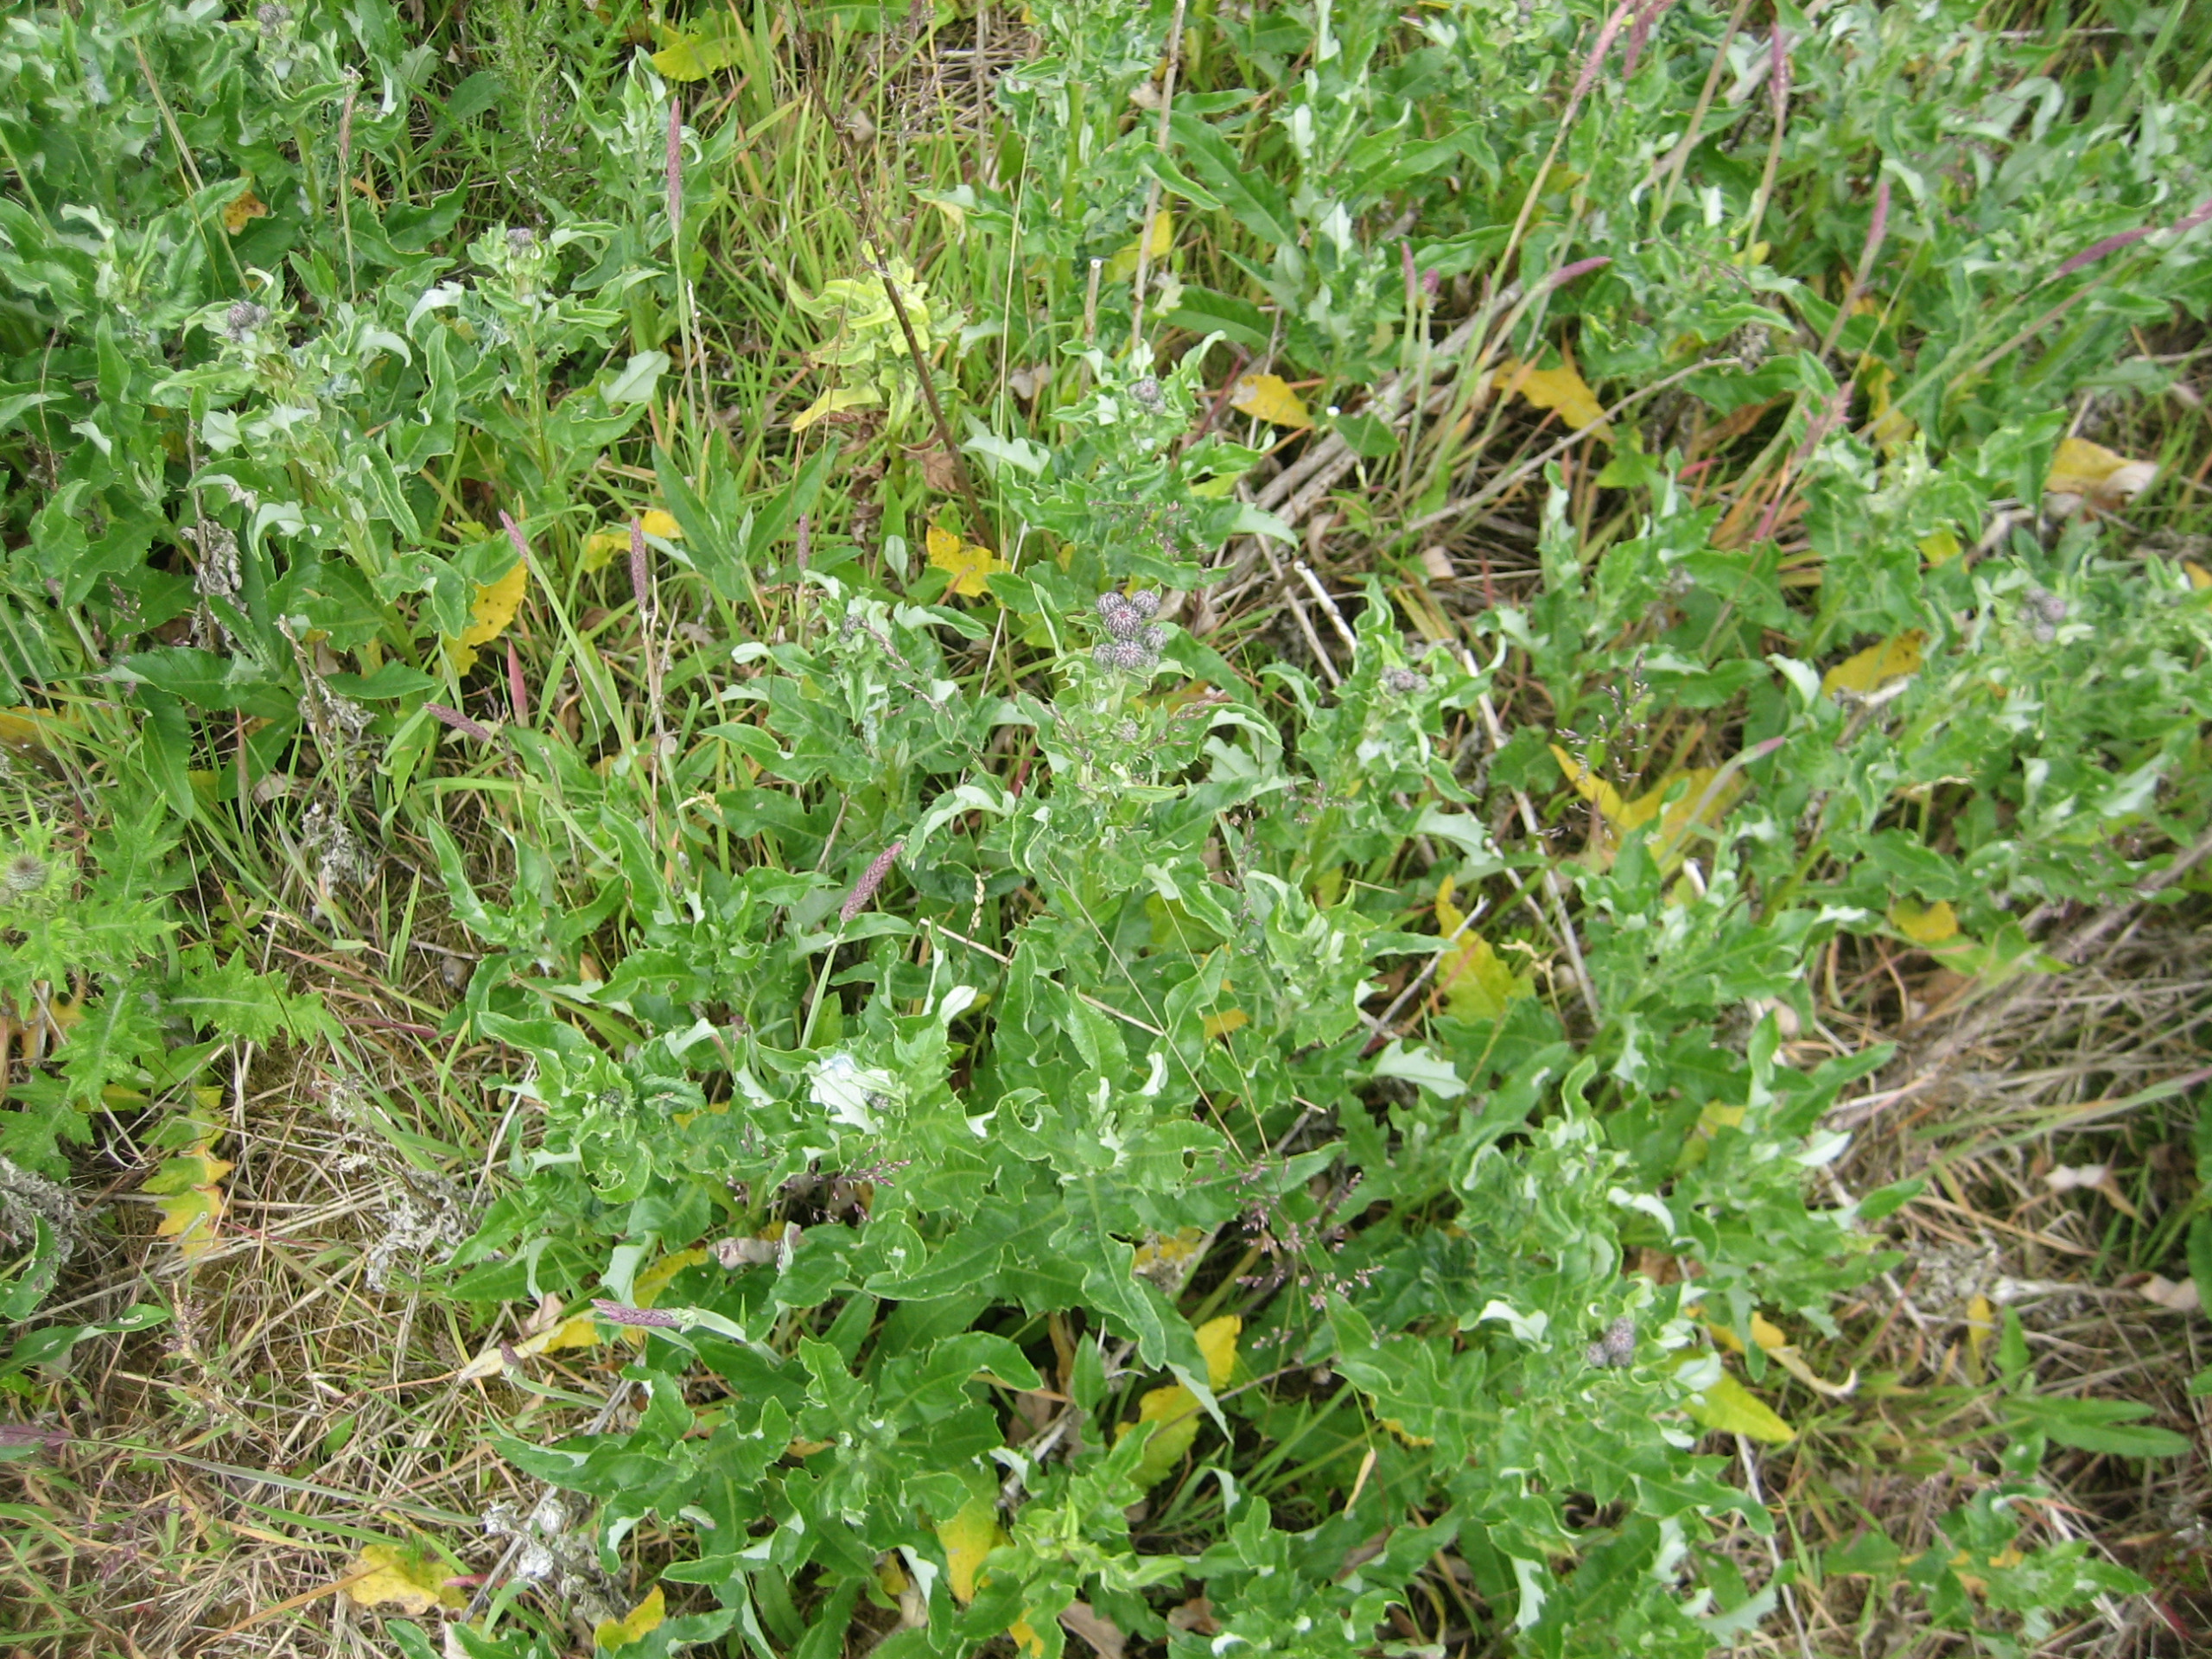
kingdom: Plantae
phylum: Tracheophyta
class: Magnoliopsida
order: Asterales
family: Asteraceae
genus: Cirsium
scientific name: Cirsium arvense
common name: Ager-tidsel
